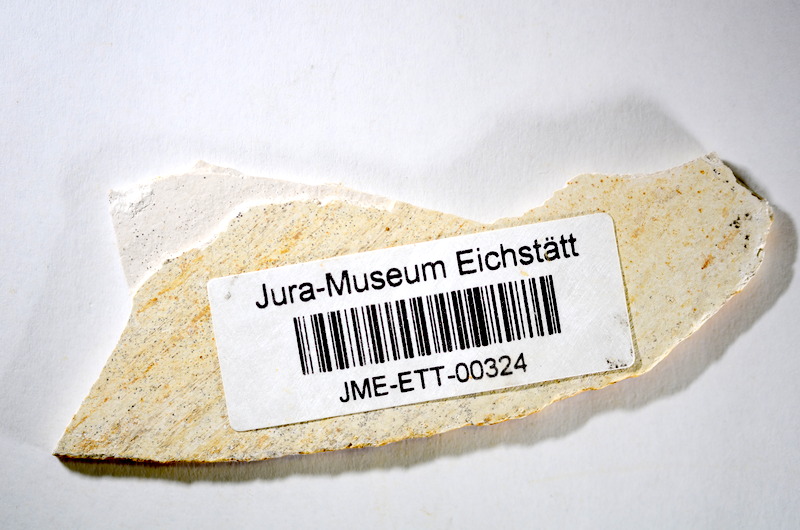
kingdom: Animalia
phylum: Chordata
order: Salmoniformes
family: Orthogonikleithridae
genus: Orthogonikleithrus
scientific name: Orthogonikleithrus hoelli
